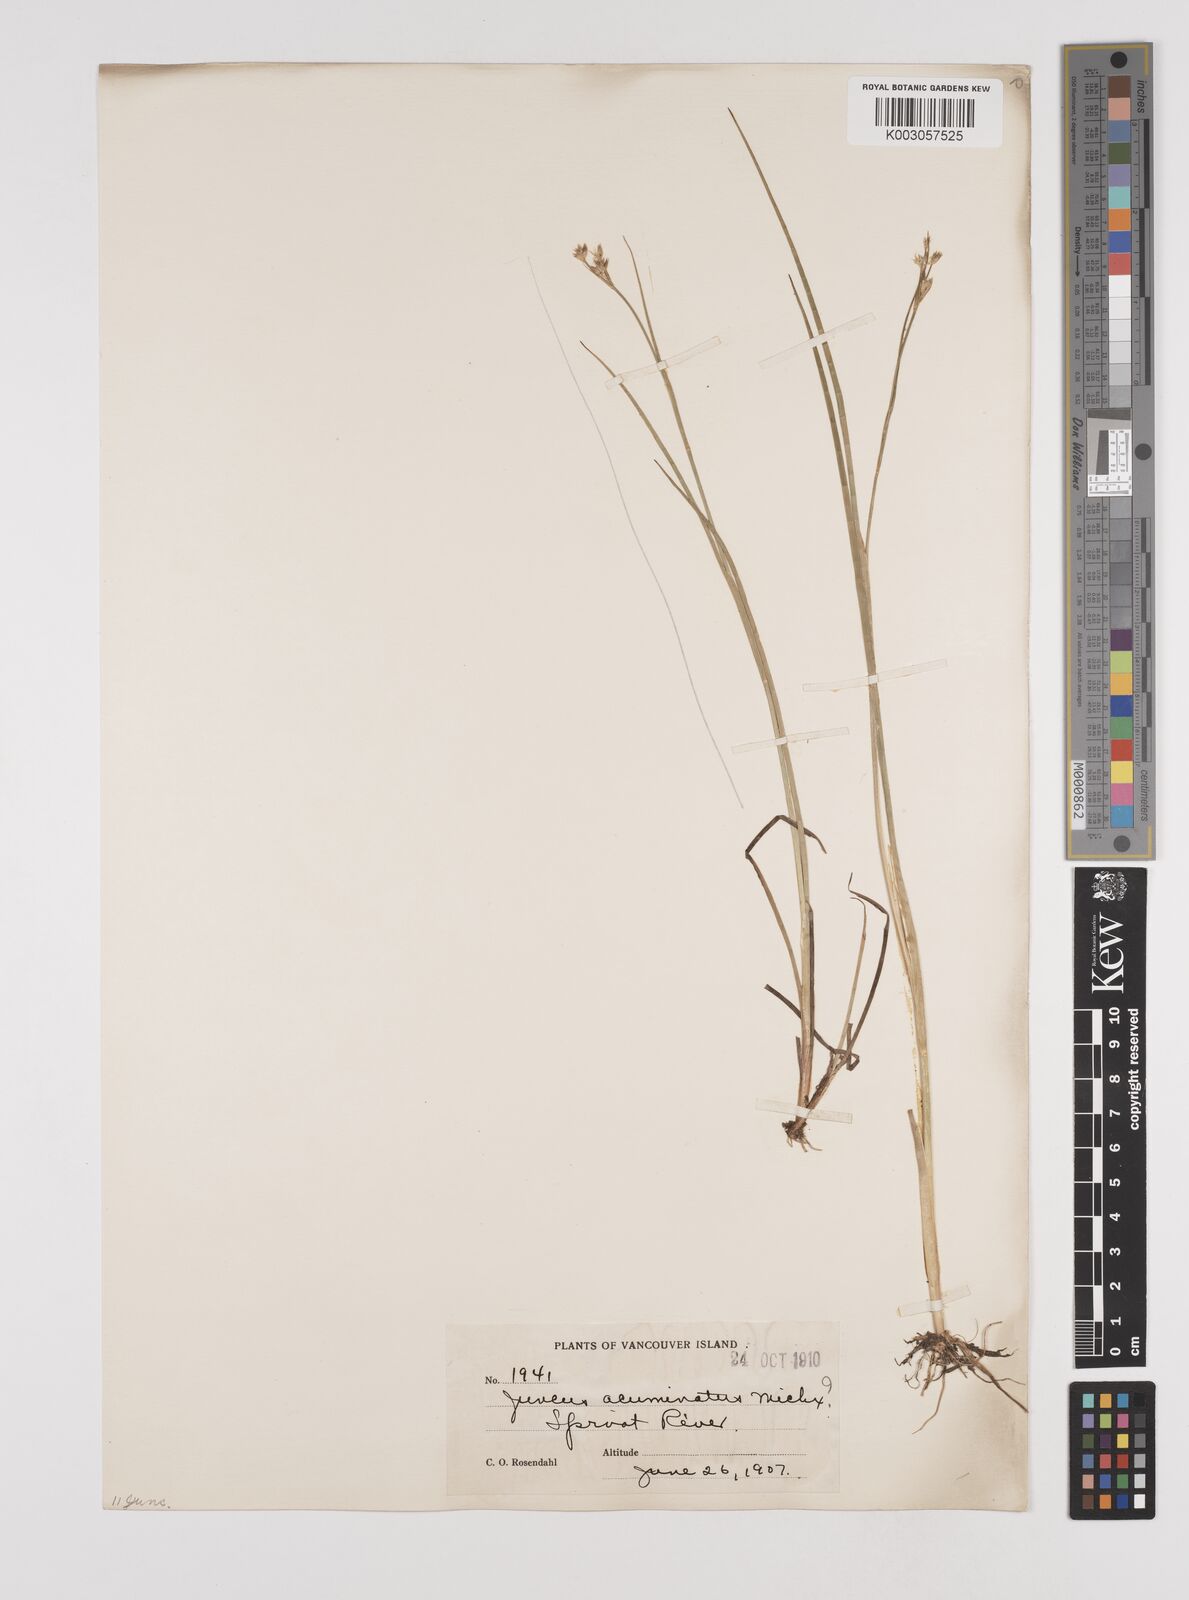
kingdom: Plantae
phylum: Tracheophyta
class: Liliopsida
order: Poales
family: Juncaceae
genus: Juncus
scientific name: Juncus acuminatus
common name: Knotty-leaved rush
